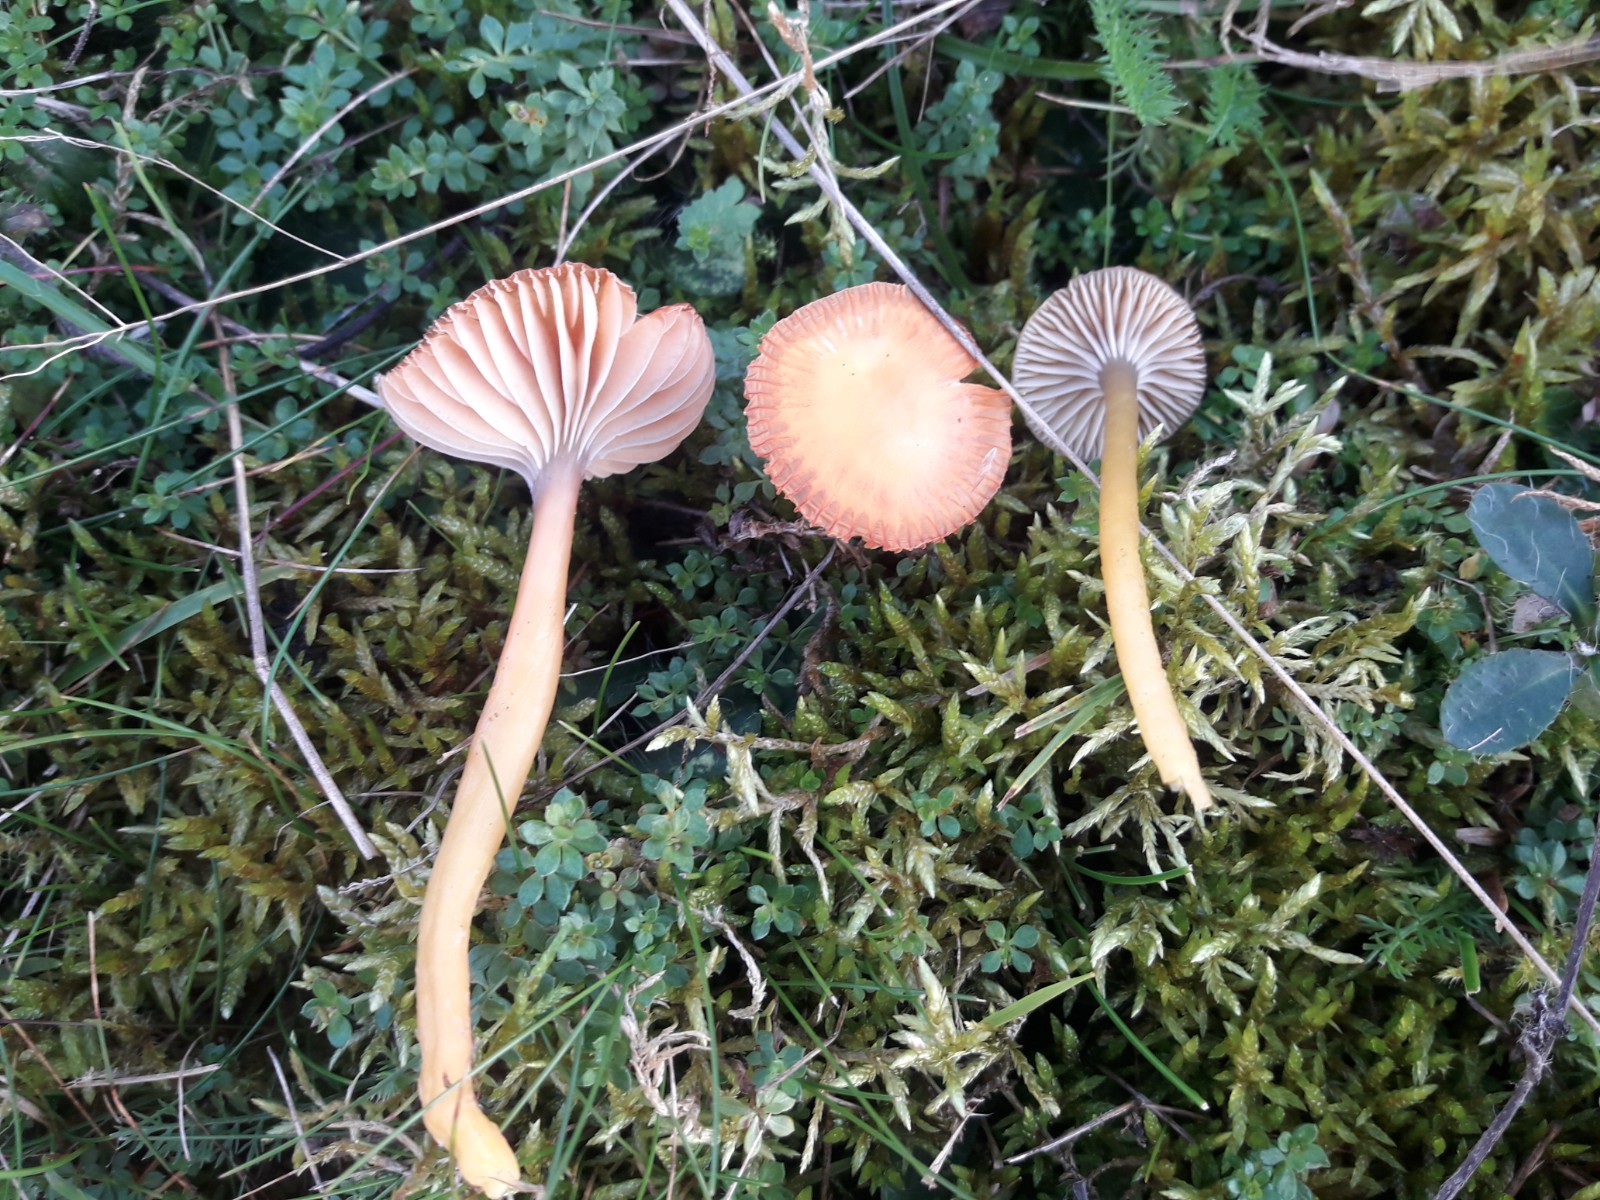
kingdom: Fungi
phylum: Basidiomycota
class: Agaricomycetes
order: Agaricales
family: Hygrophoraceae
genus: Gliophorus
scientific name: Gliophorus laetus
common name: brusk-vokshat
